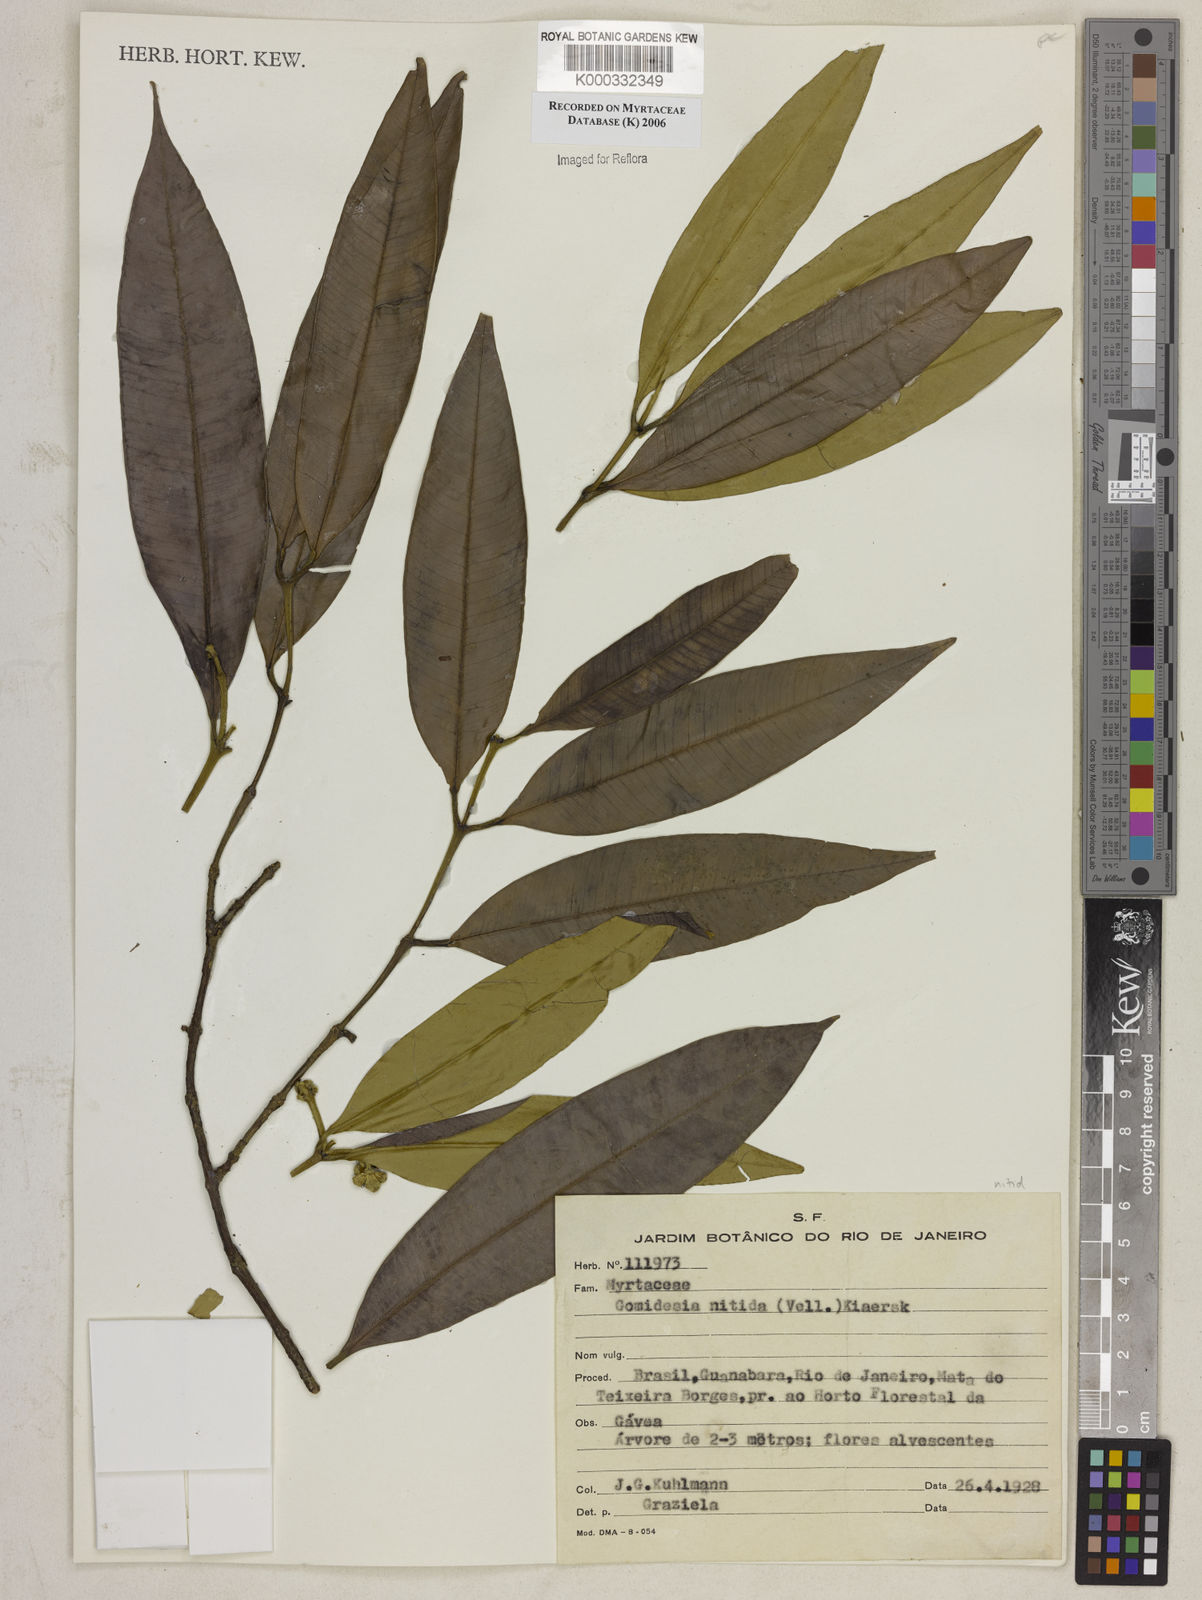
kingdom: Plantae
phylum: Tracheophyta
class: Magnoliopsida
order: Myrtales
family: Myrtaceae
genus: Myrcia
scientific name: Myrcia subsericea
